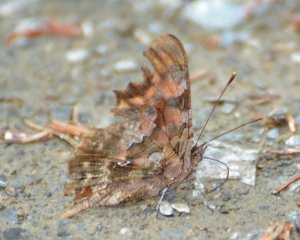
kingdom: Animalia
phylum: Arthropoda
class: Insecta
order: Lepidoptera
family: Nymphalidae
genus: Polygonia
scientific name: Polygonia faunus
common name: Green Comma
